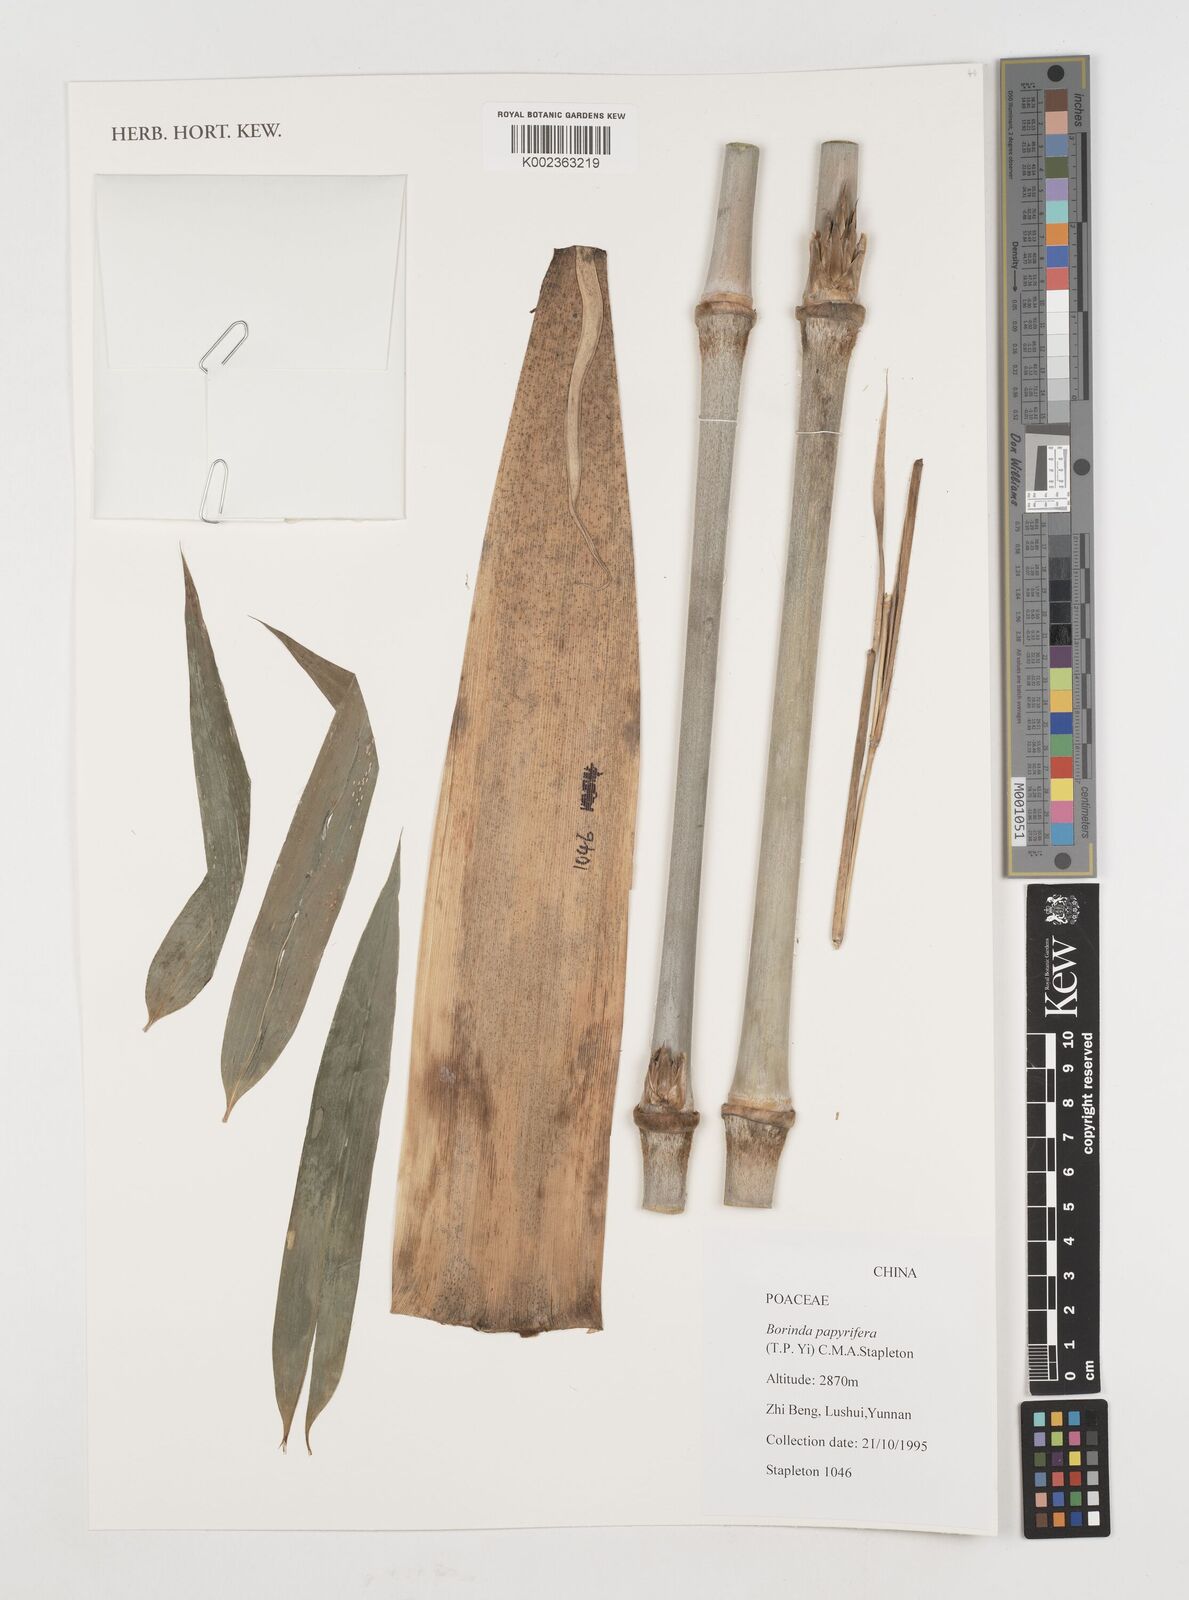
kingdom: Plantae
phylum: Tracheophyta
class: Liliopsida
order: Poales
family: Poaceae
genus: Borinda
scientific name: Borinda papyrifera
